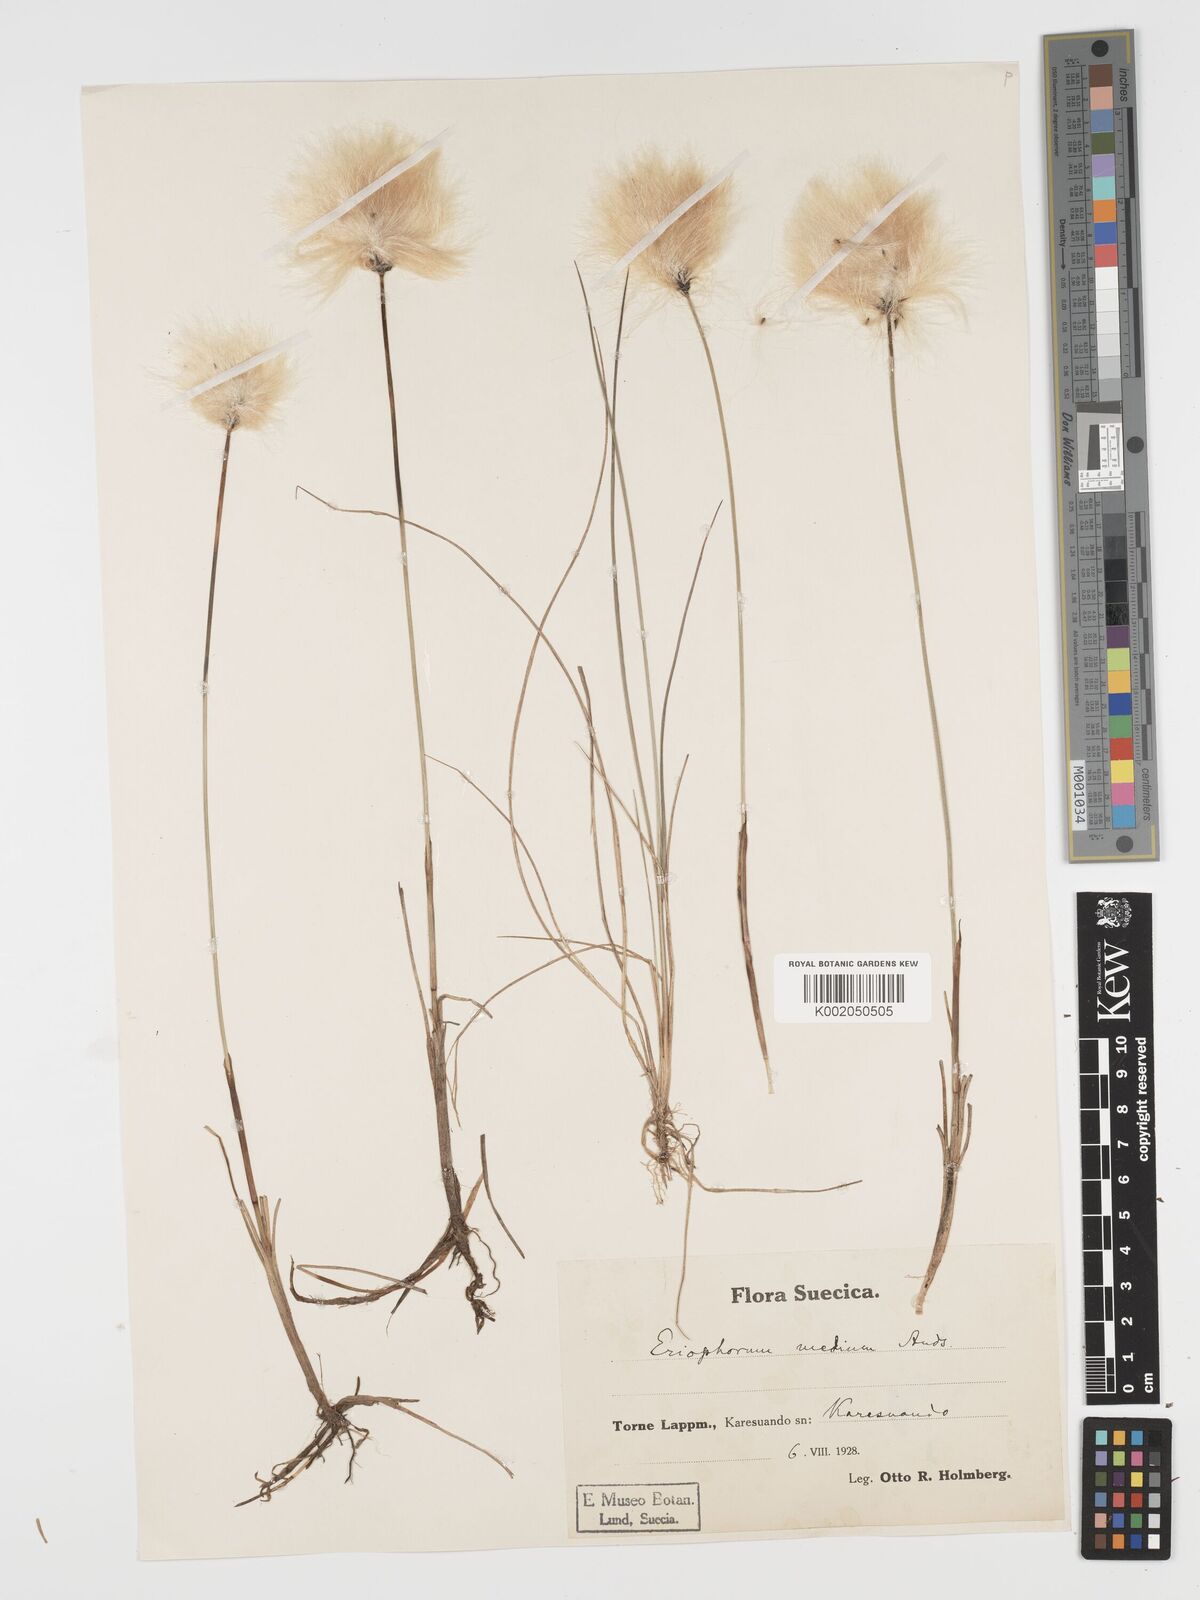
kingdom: Plantae
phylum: Tracheophyta
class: Liliopsida
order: Poales
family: Cyperaceae
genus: Eriophorum
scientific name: Eriophorum medium
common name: Intermediate cottongrass
